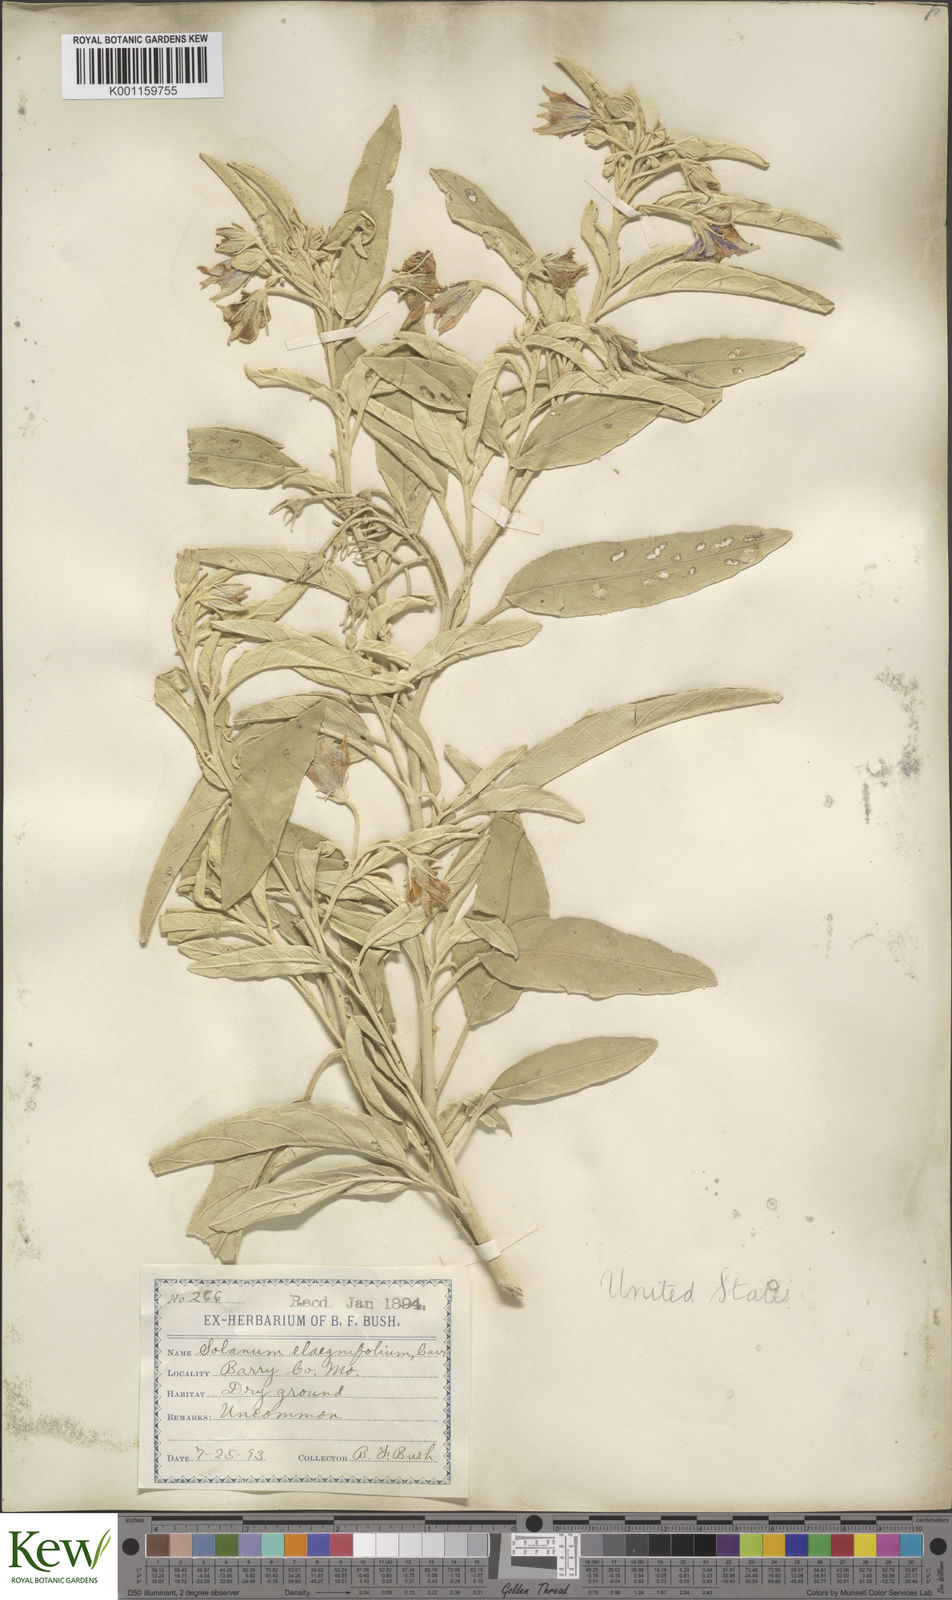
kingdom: Plantae
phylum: Tracheophyta
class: Magnoliopsida
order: Solanales
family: Solanaceae
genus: Solanum
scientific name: Solanum
